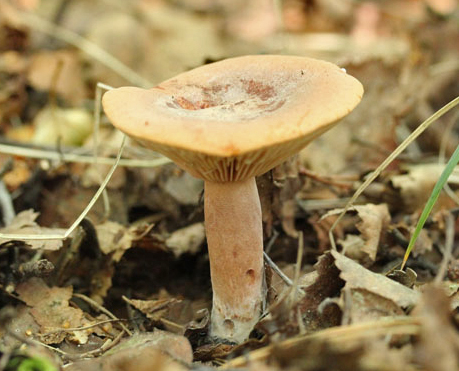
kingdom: Fungi
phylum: Basidiomycota
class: Agaricomycetes
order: Russulales
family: Russulaceae
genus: Lactarius
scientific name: Lactarius rufus
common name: rødbrun mælkehat
